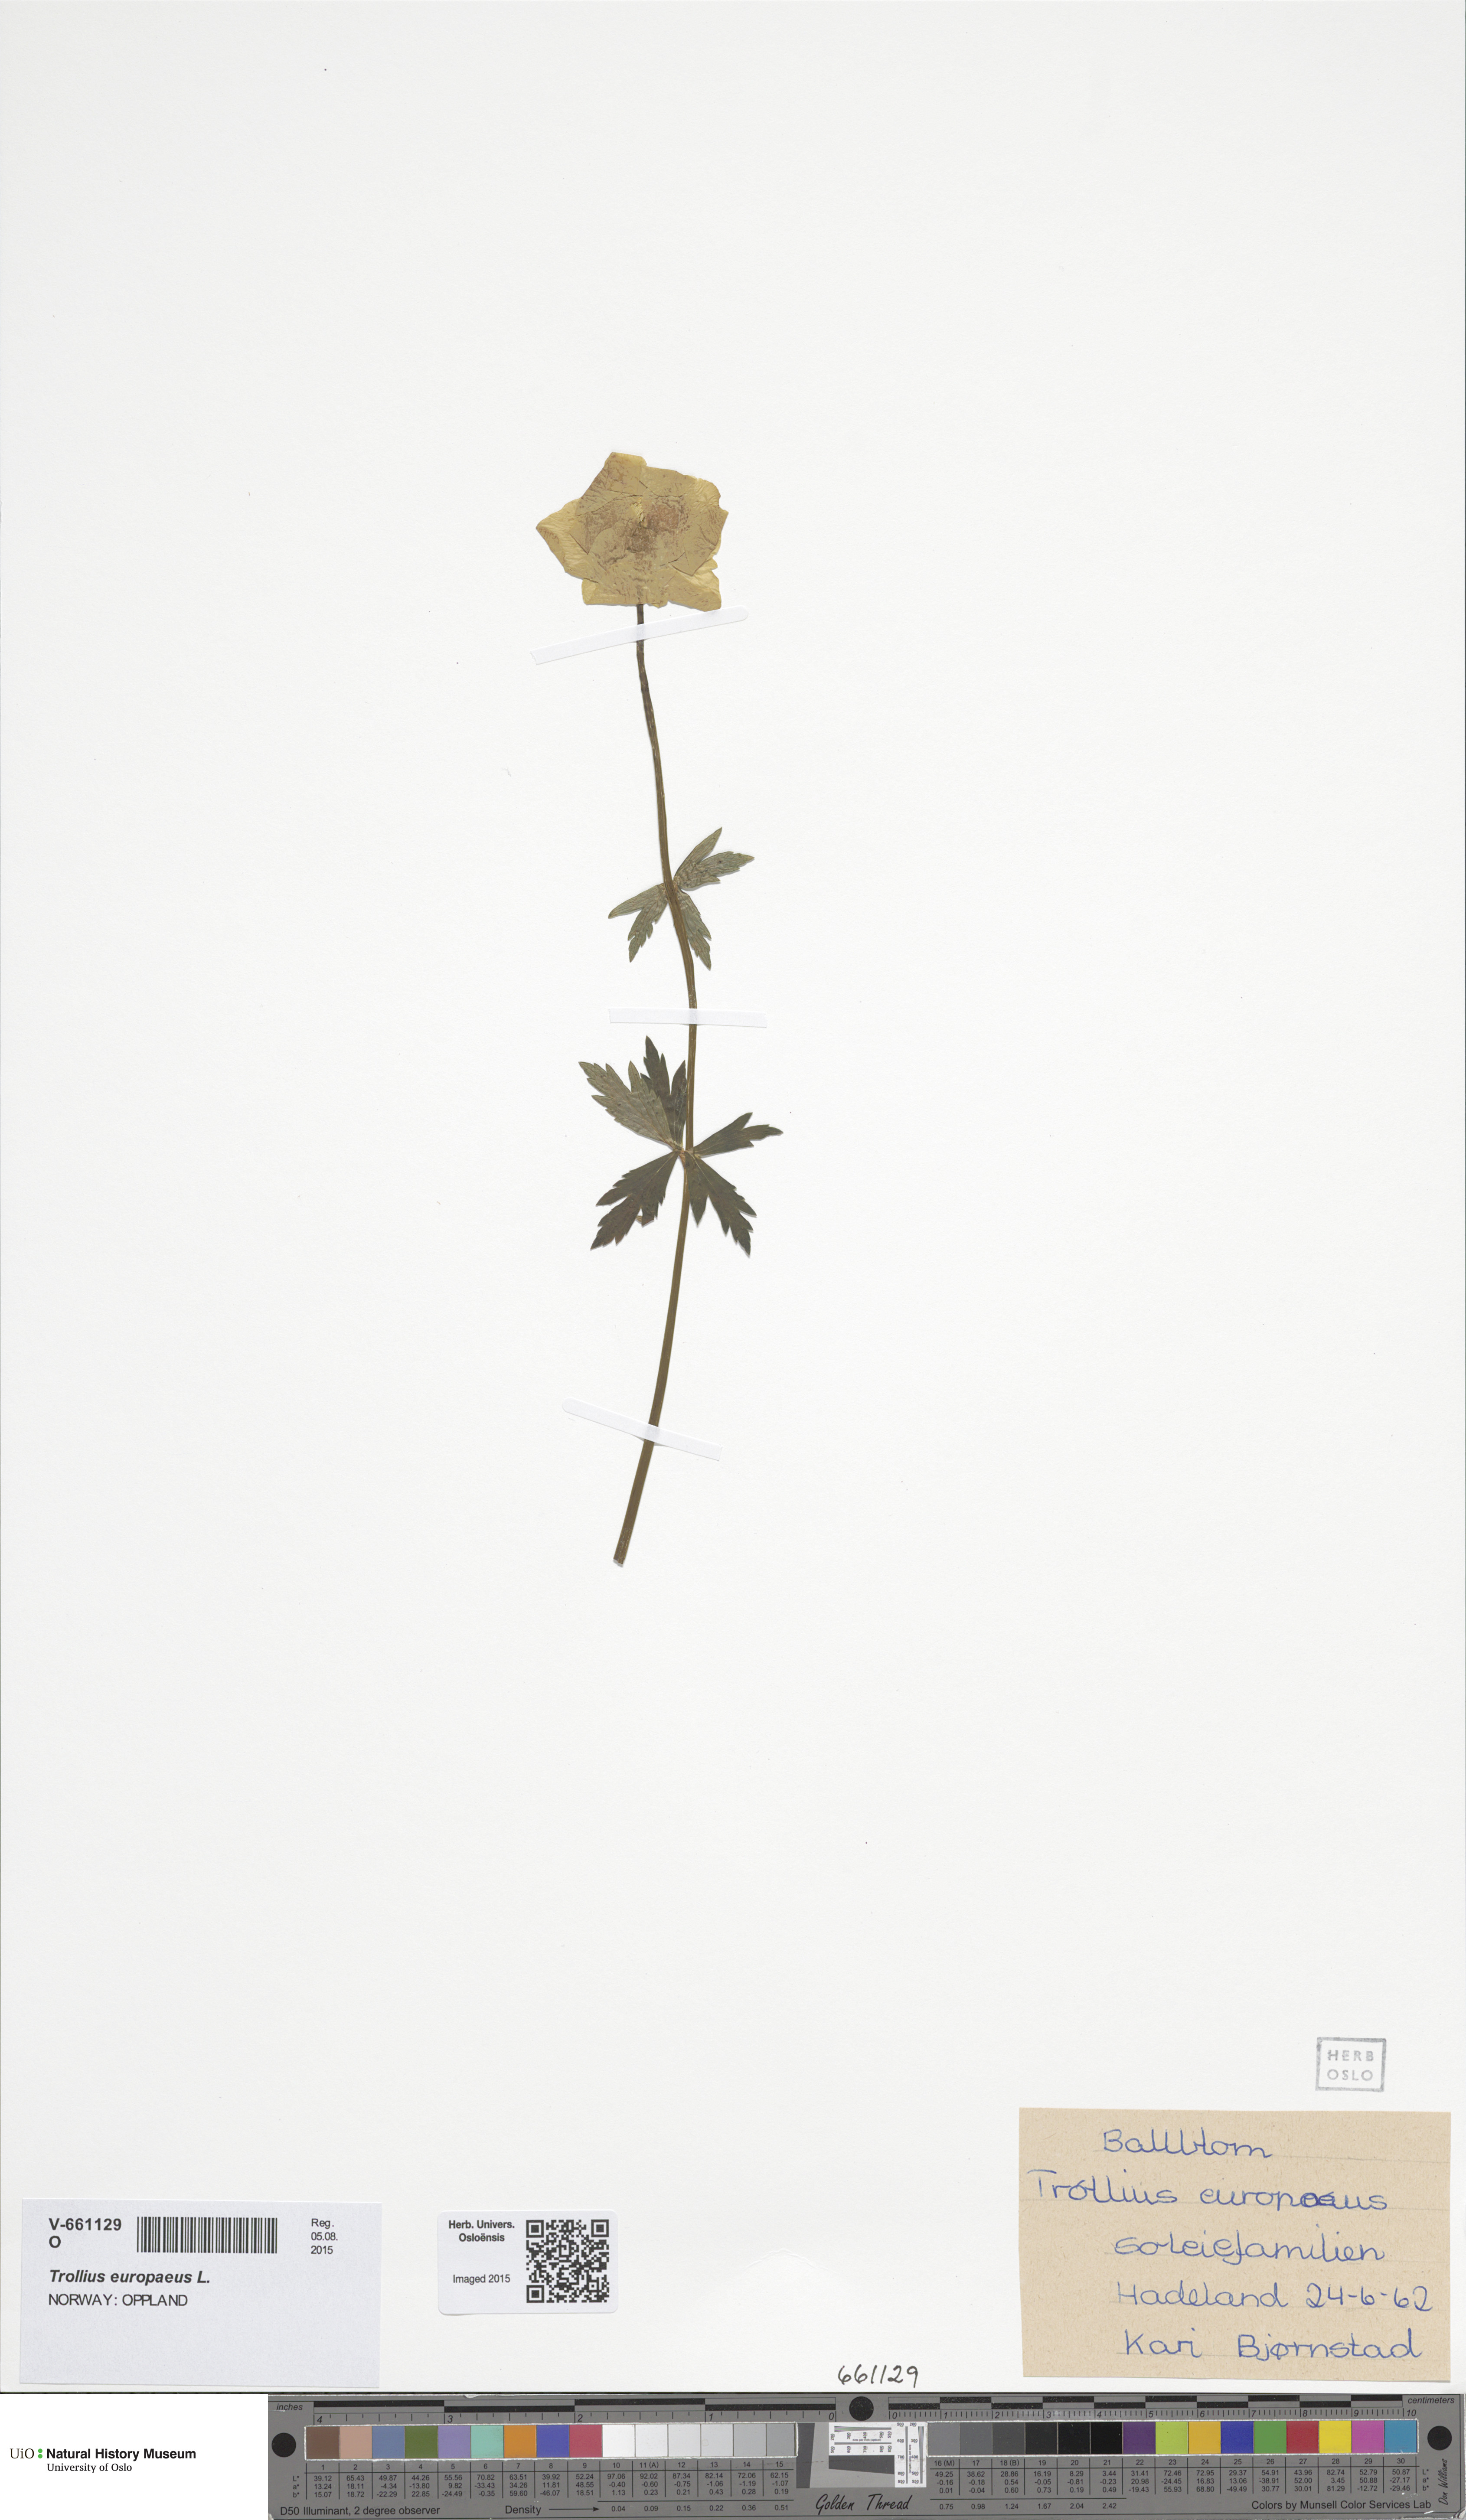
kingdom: Plantae
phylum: Tracheophyta
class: Magnoliopsida
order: Ranunculales
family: Ranunculaceae
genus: Trollius
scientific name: Trollius europaeus
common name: European globeflower
